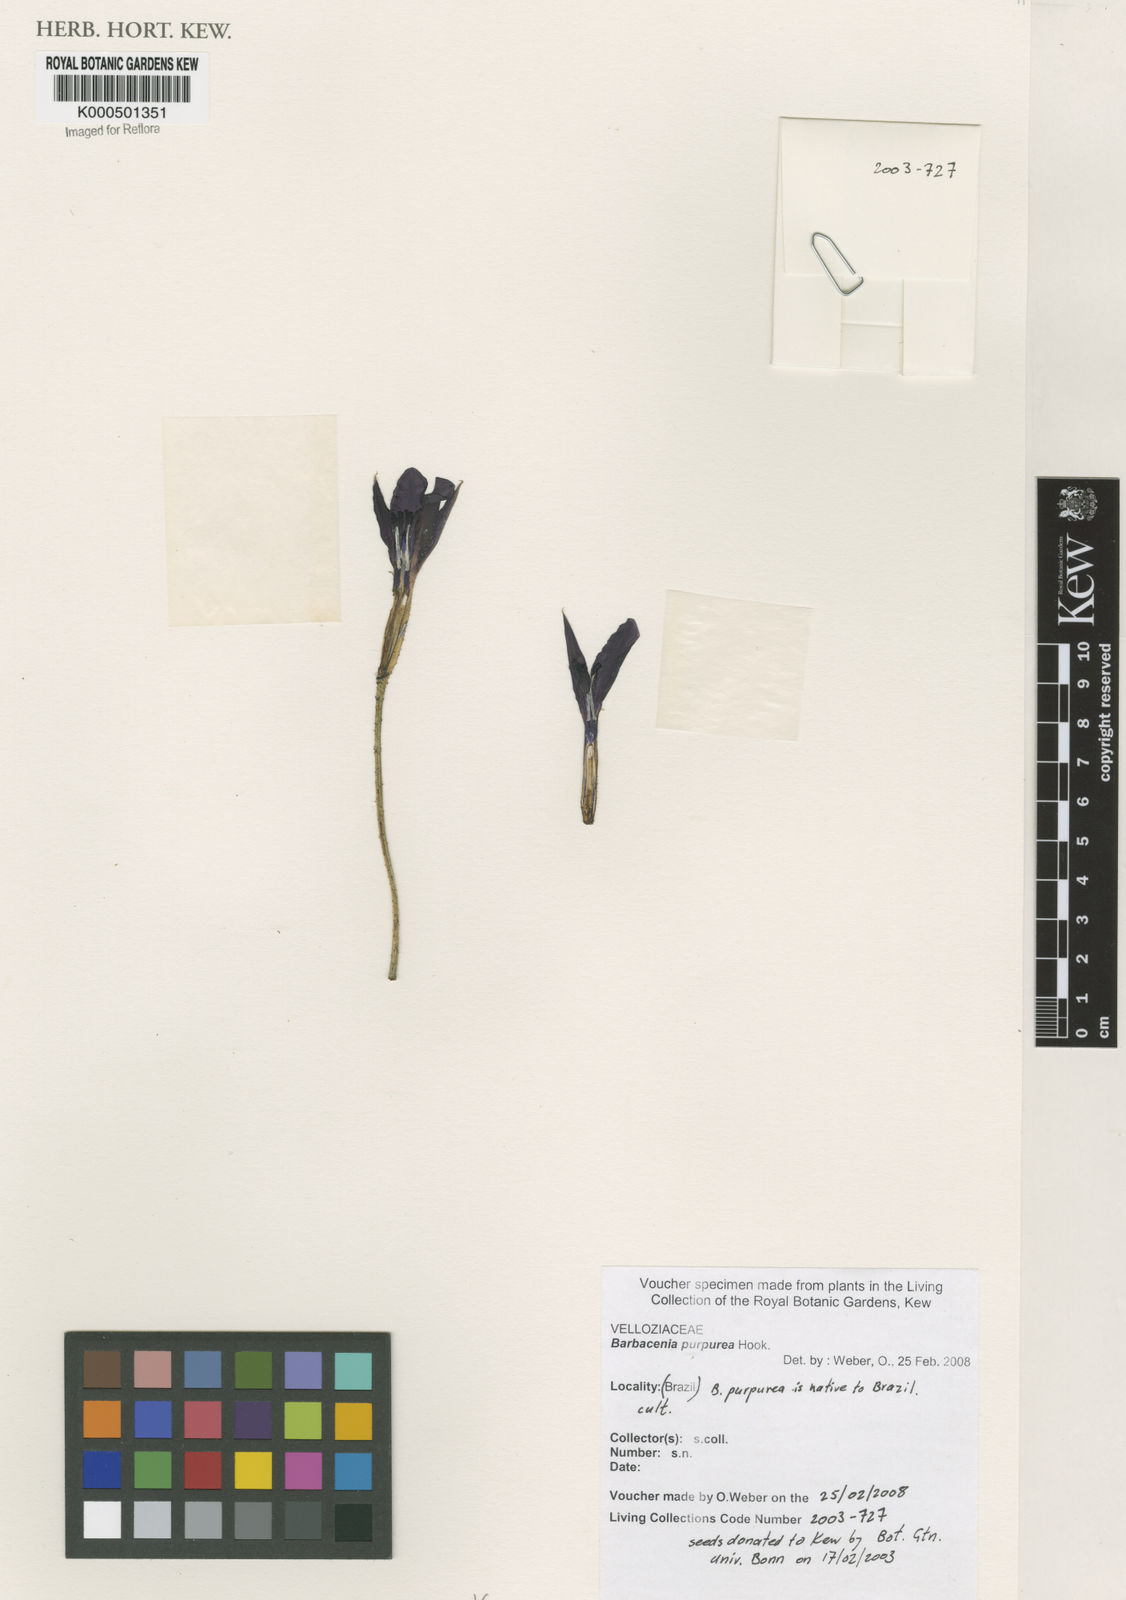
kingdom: Plantae
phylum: Tracheophyta
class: Liliopsida
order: Pandanales
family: Velloziaceae
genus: Barbacenia
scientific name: Barbacenia purpurea
